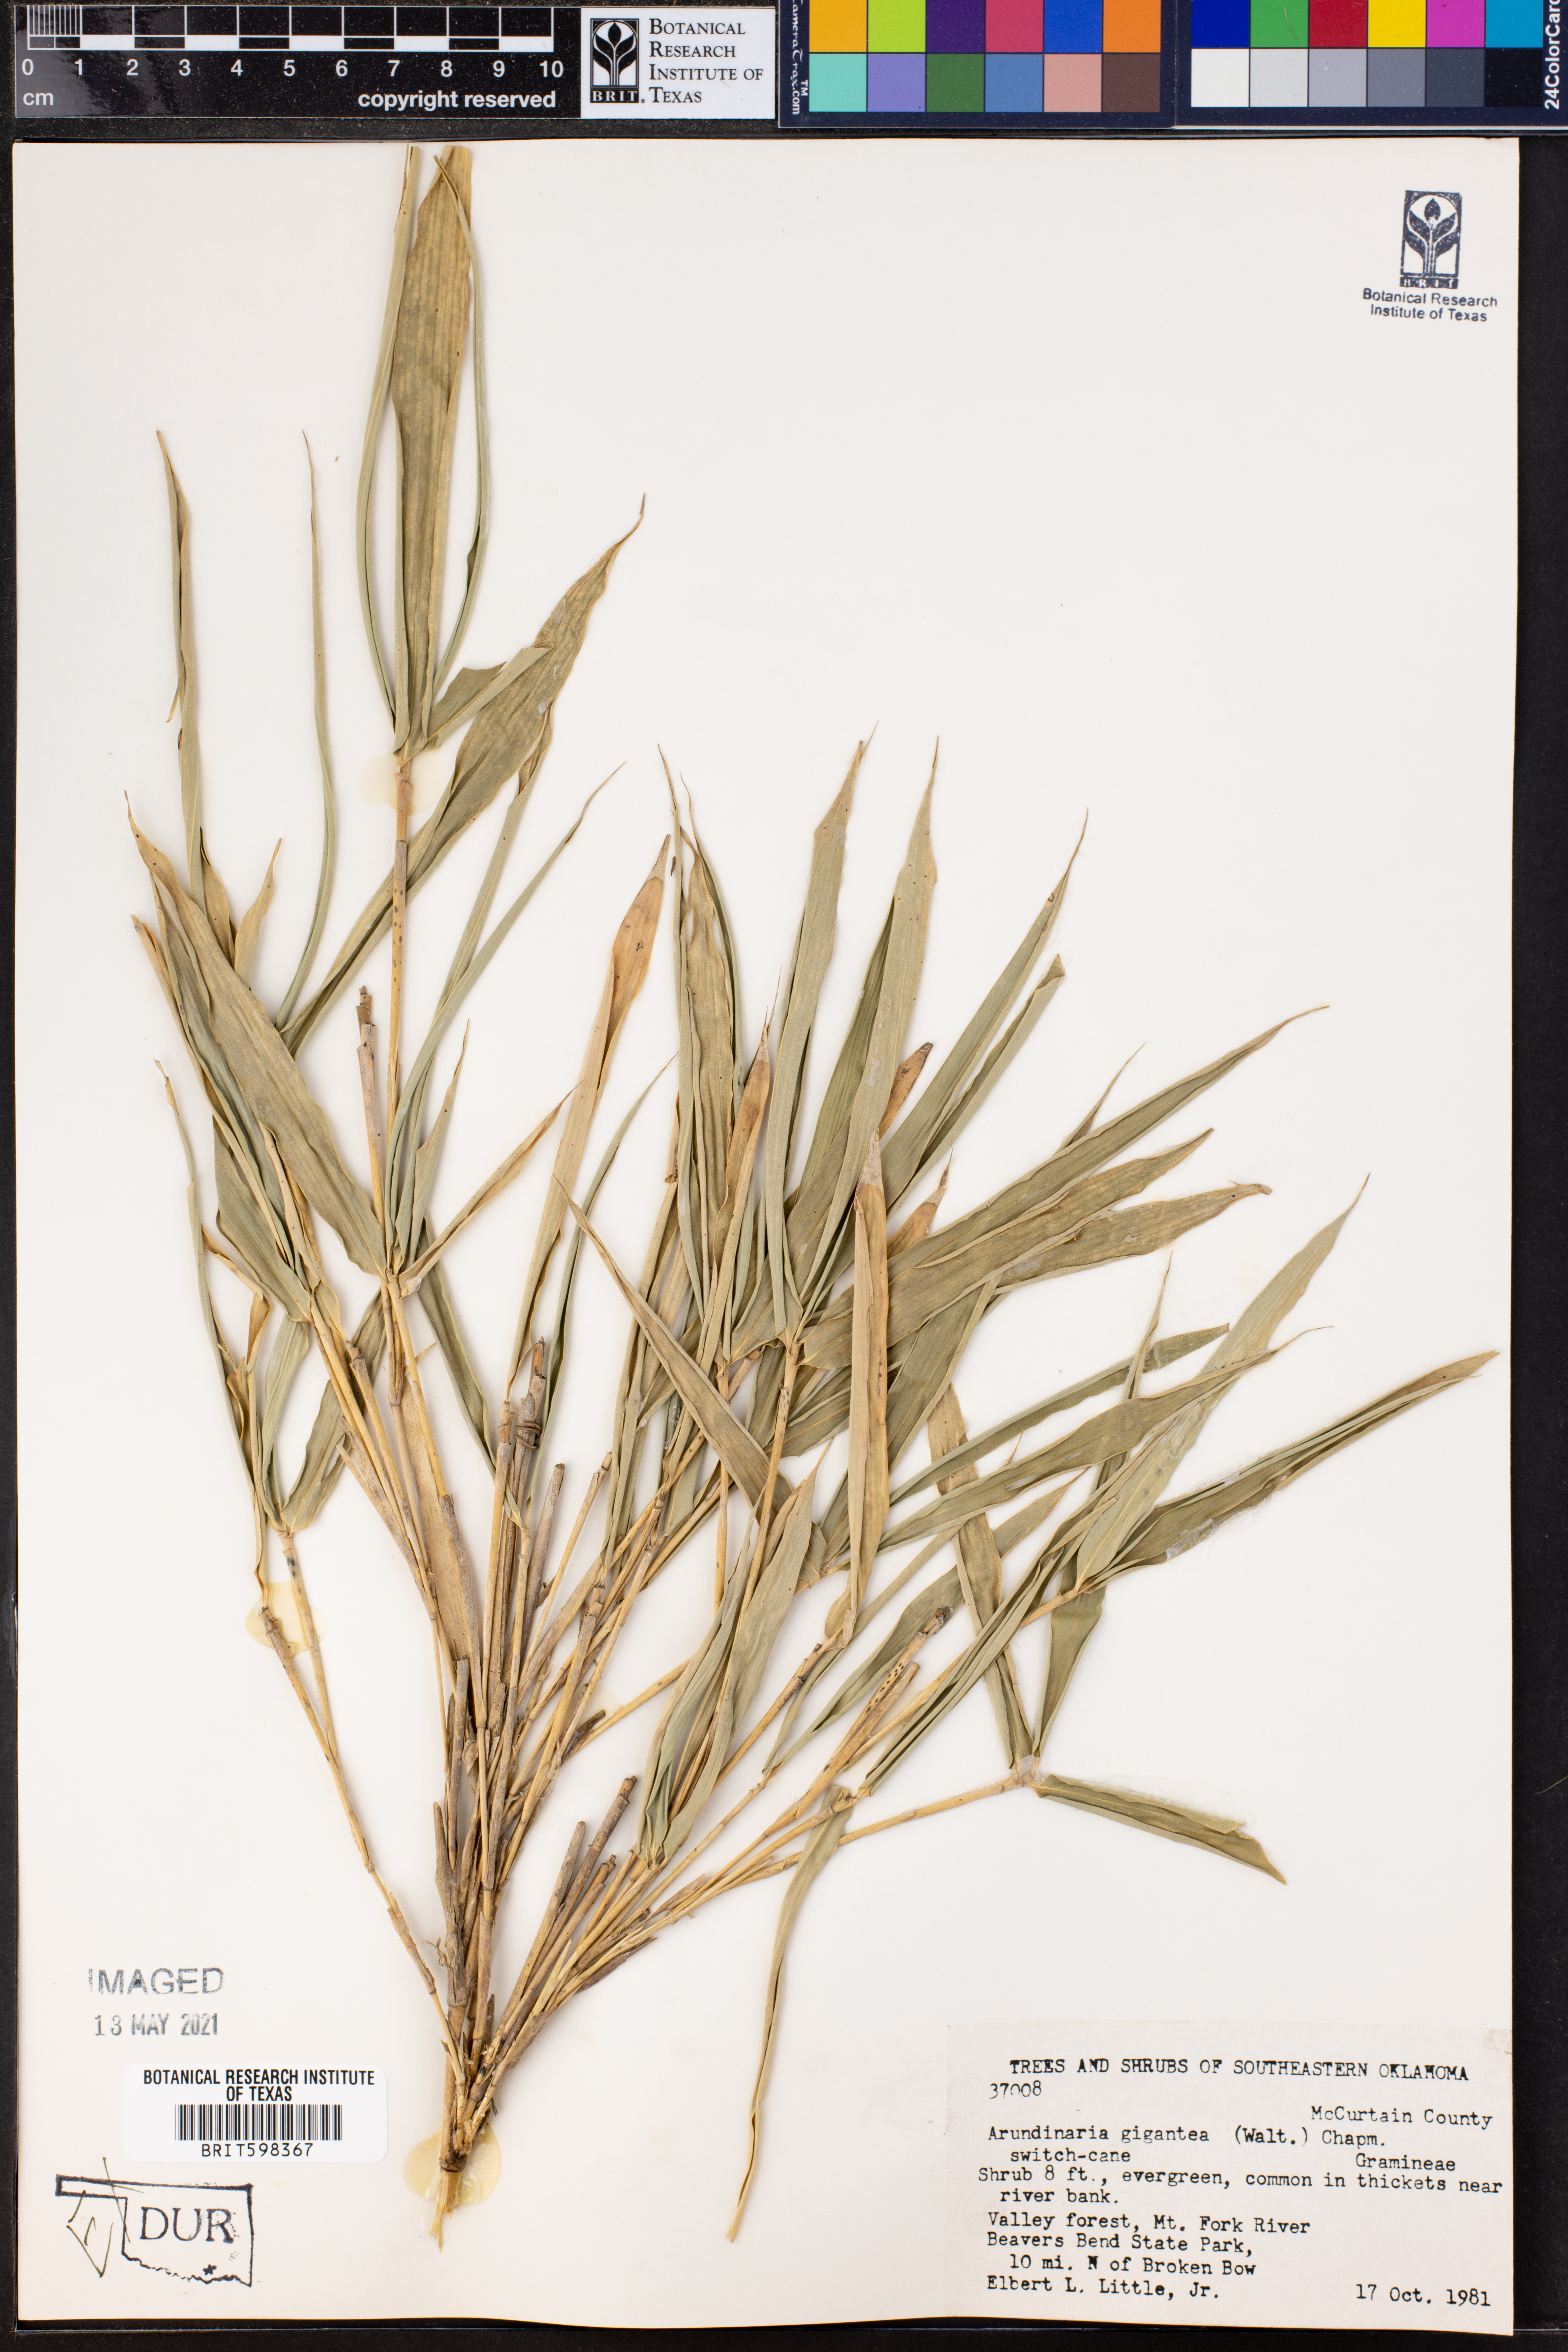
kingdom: Plantae
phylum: Tracheophyta
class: Liliopsida
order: Poales
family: Poaceae
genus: Arundinaria
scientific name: Arundinaria gigantea
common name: Giant cane
